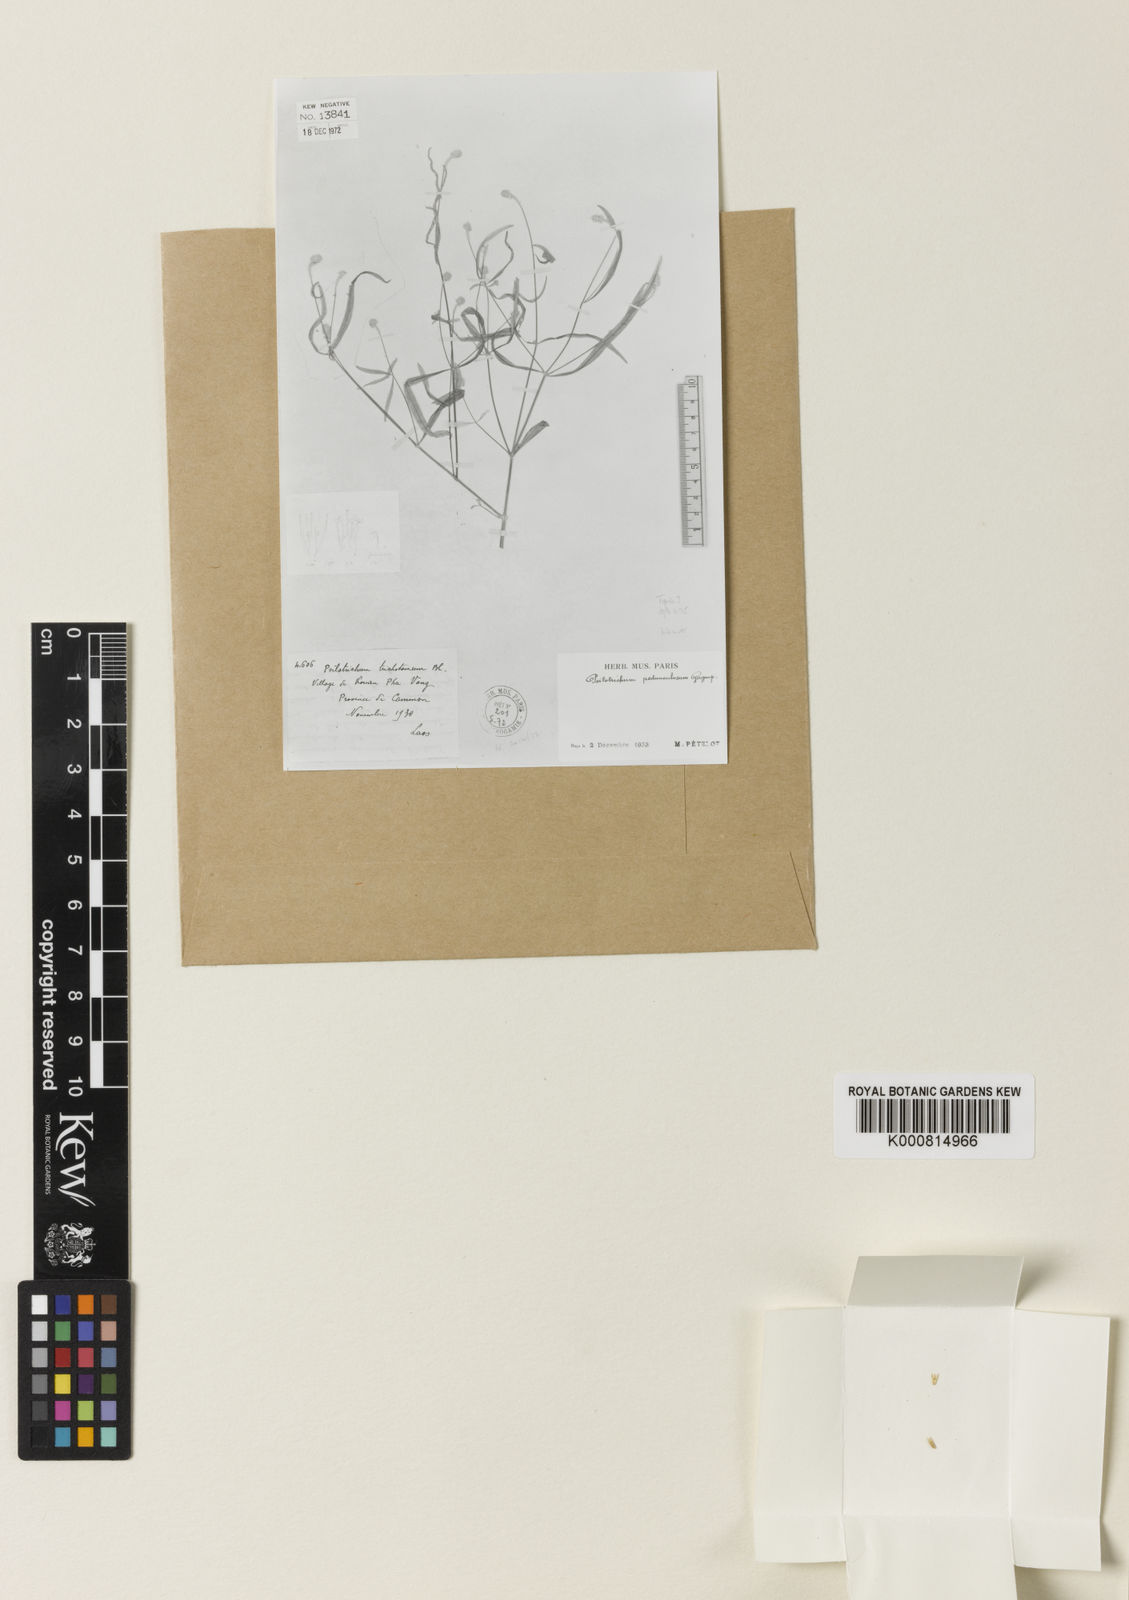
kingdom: Plantae
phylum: Tracheophyta
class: Magnoliopsida
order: Caryophyllales
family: Amaranthaceae
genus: Psilotrichum
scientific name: Psilotrichum ferrugineum
